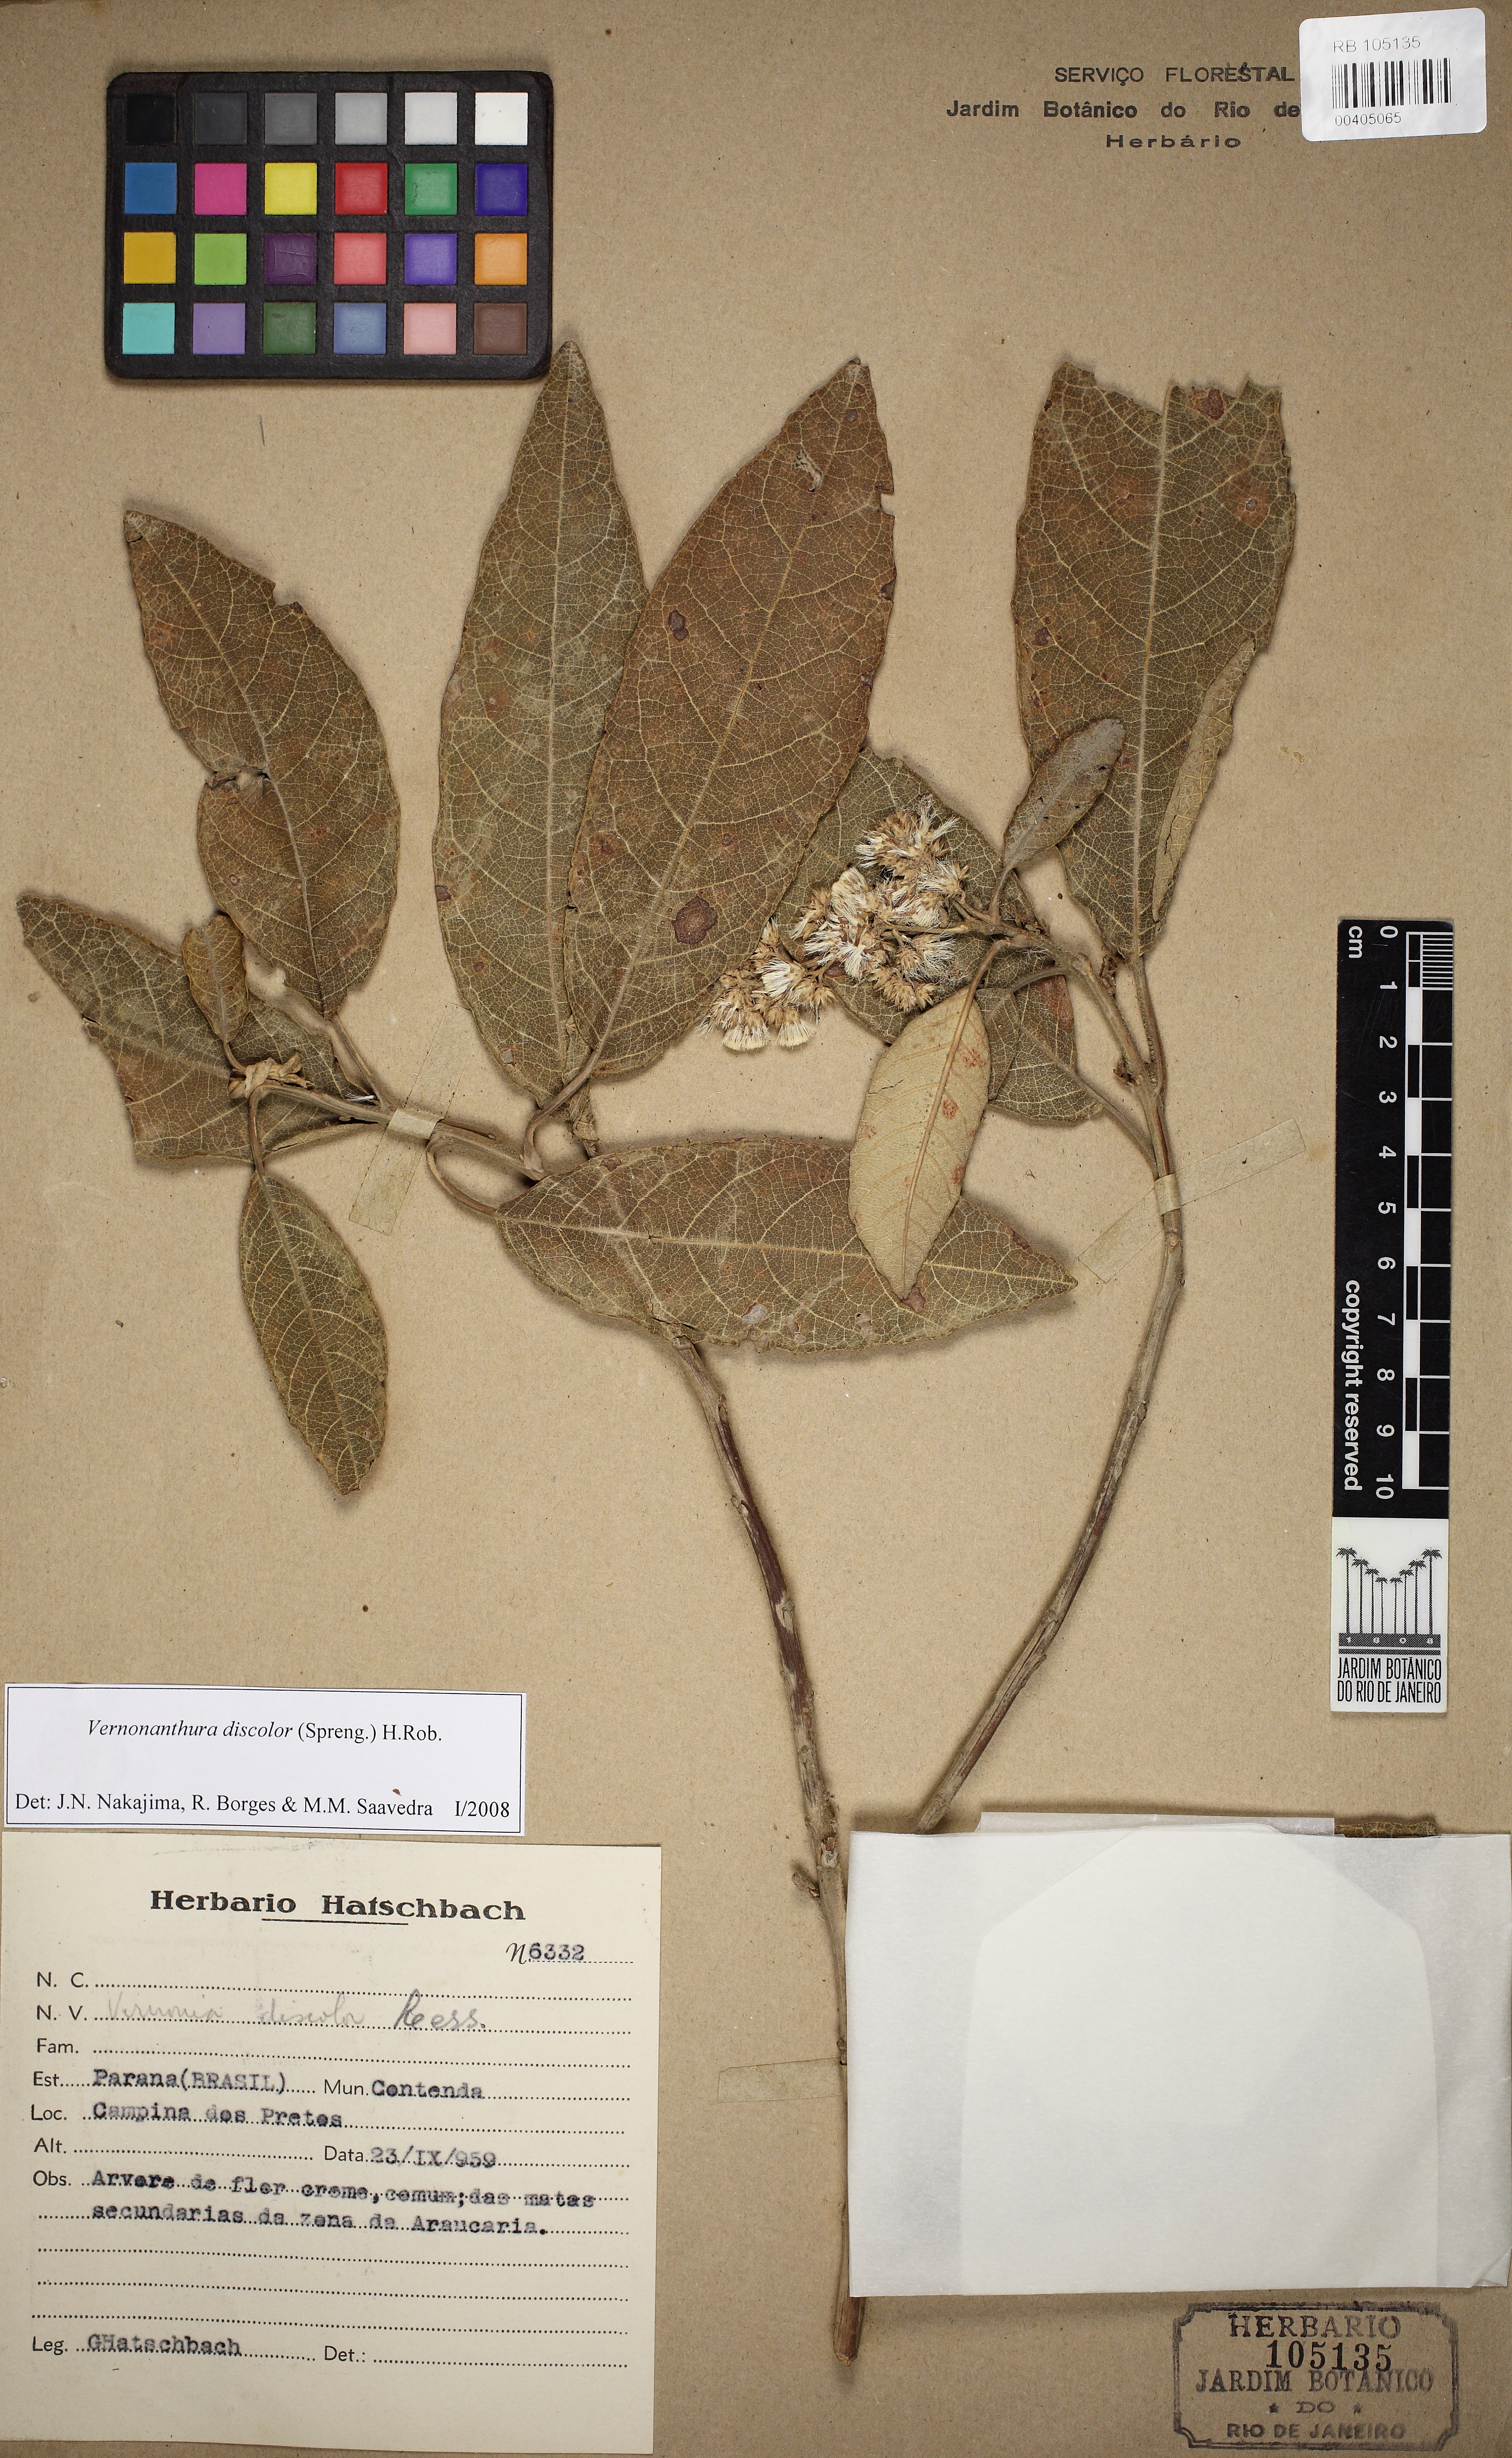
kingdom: Plantae
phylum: Tracheophyta
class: Magnoliopsida
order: Asterales
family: Asteraceae
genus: Vernonanthura
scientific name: Vernonanthura discolor
